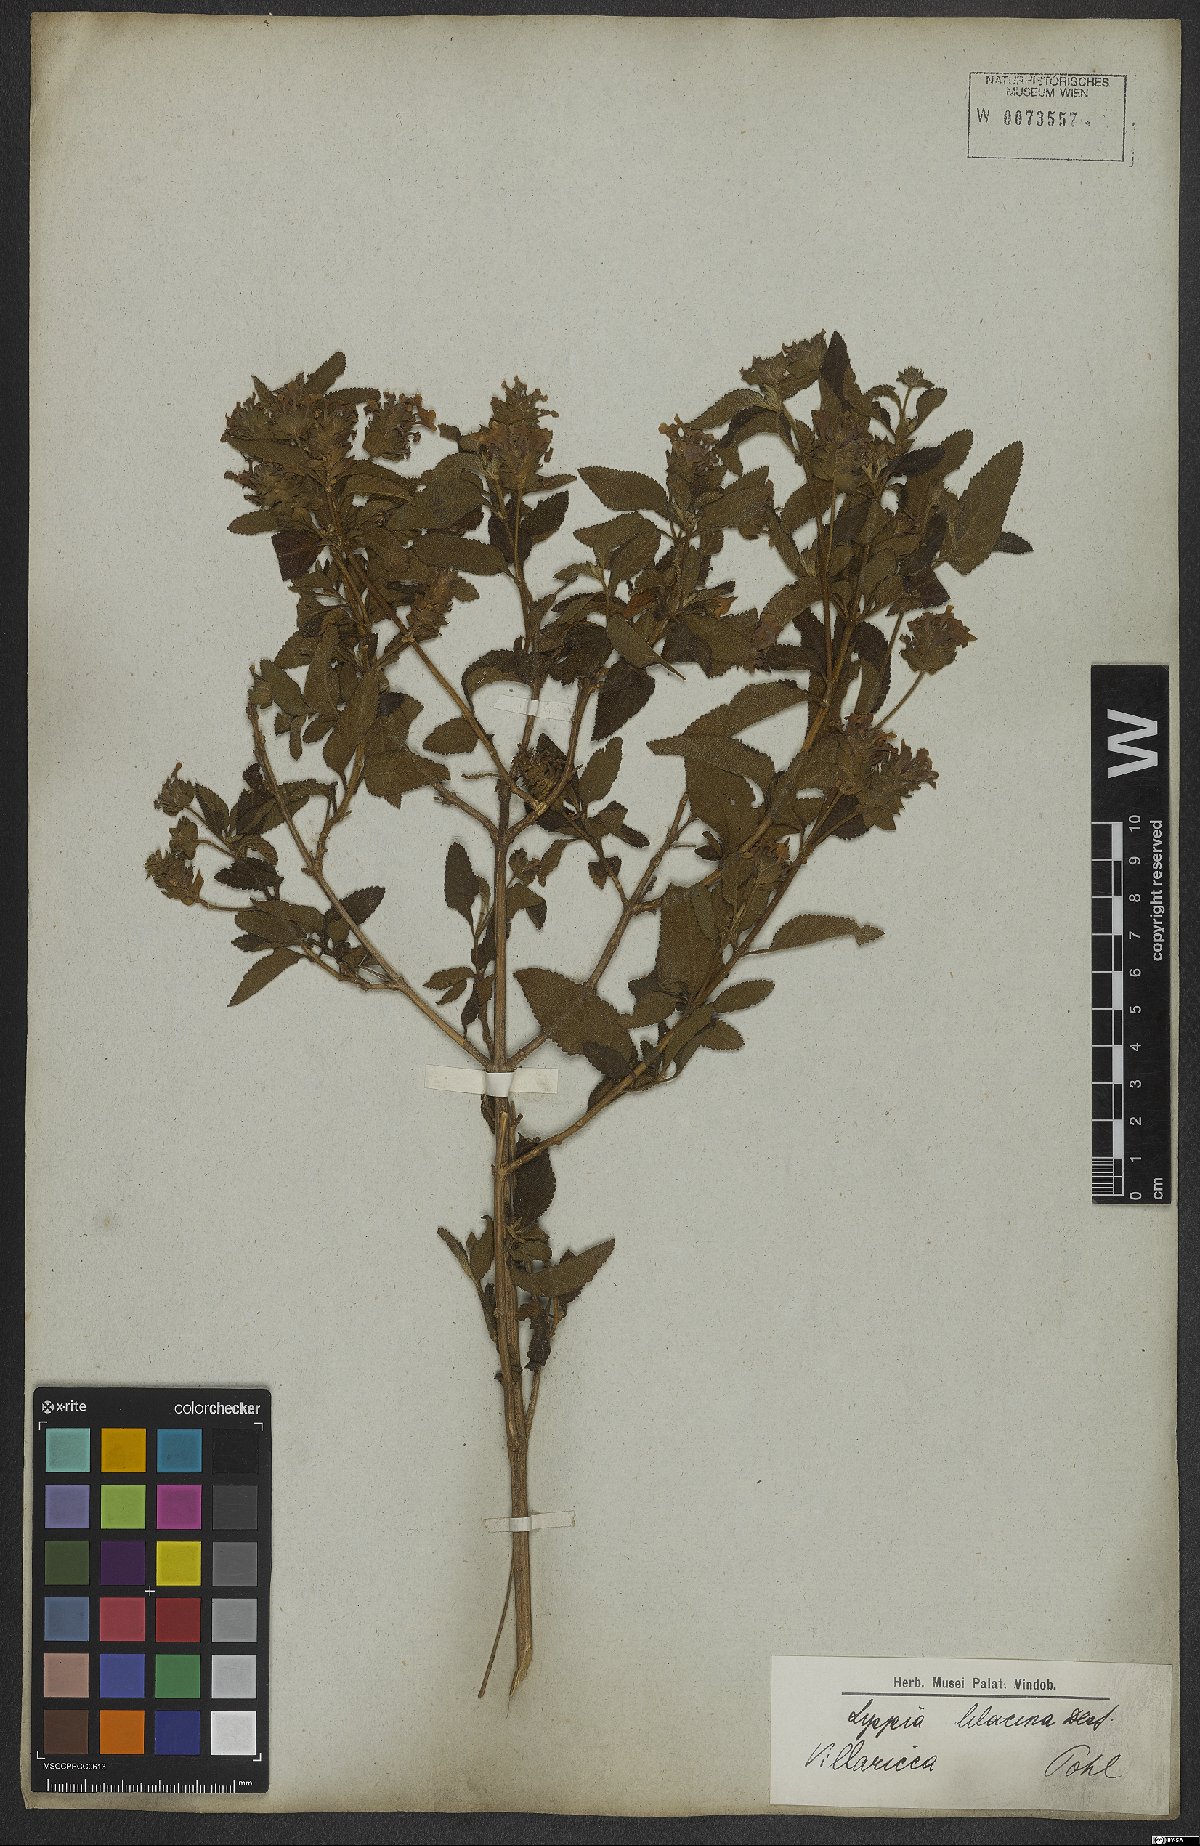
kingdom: Plantae
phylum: Tracheophyta
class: Magnoliopsida
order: Lamiales
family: Verbenaceae
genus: Lantana
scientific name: Lantana fucata
